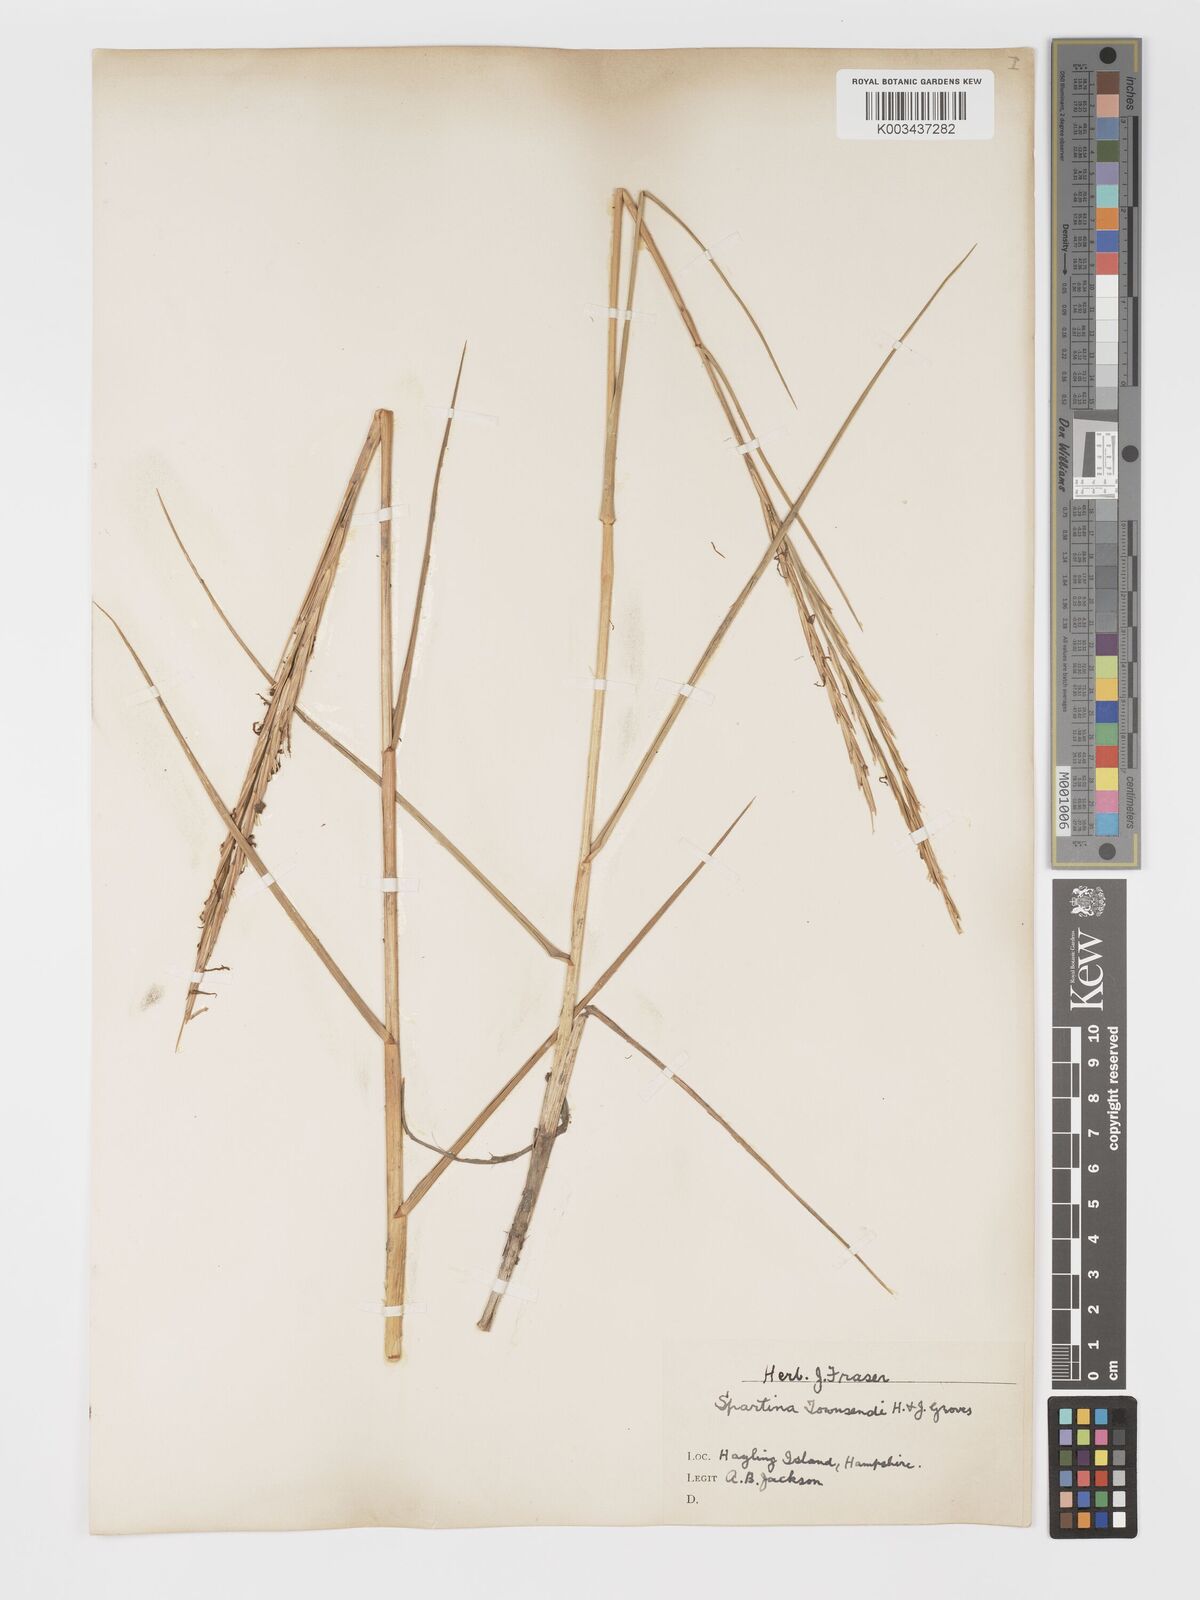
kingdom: Plantae
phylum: Tracheophyta
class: Liliopsida
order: Poales
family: Poaceae
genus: Sporobolus
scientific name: Sporobolus townsendii
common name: Townsend's cordgrass
